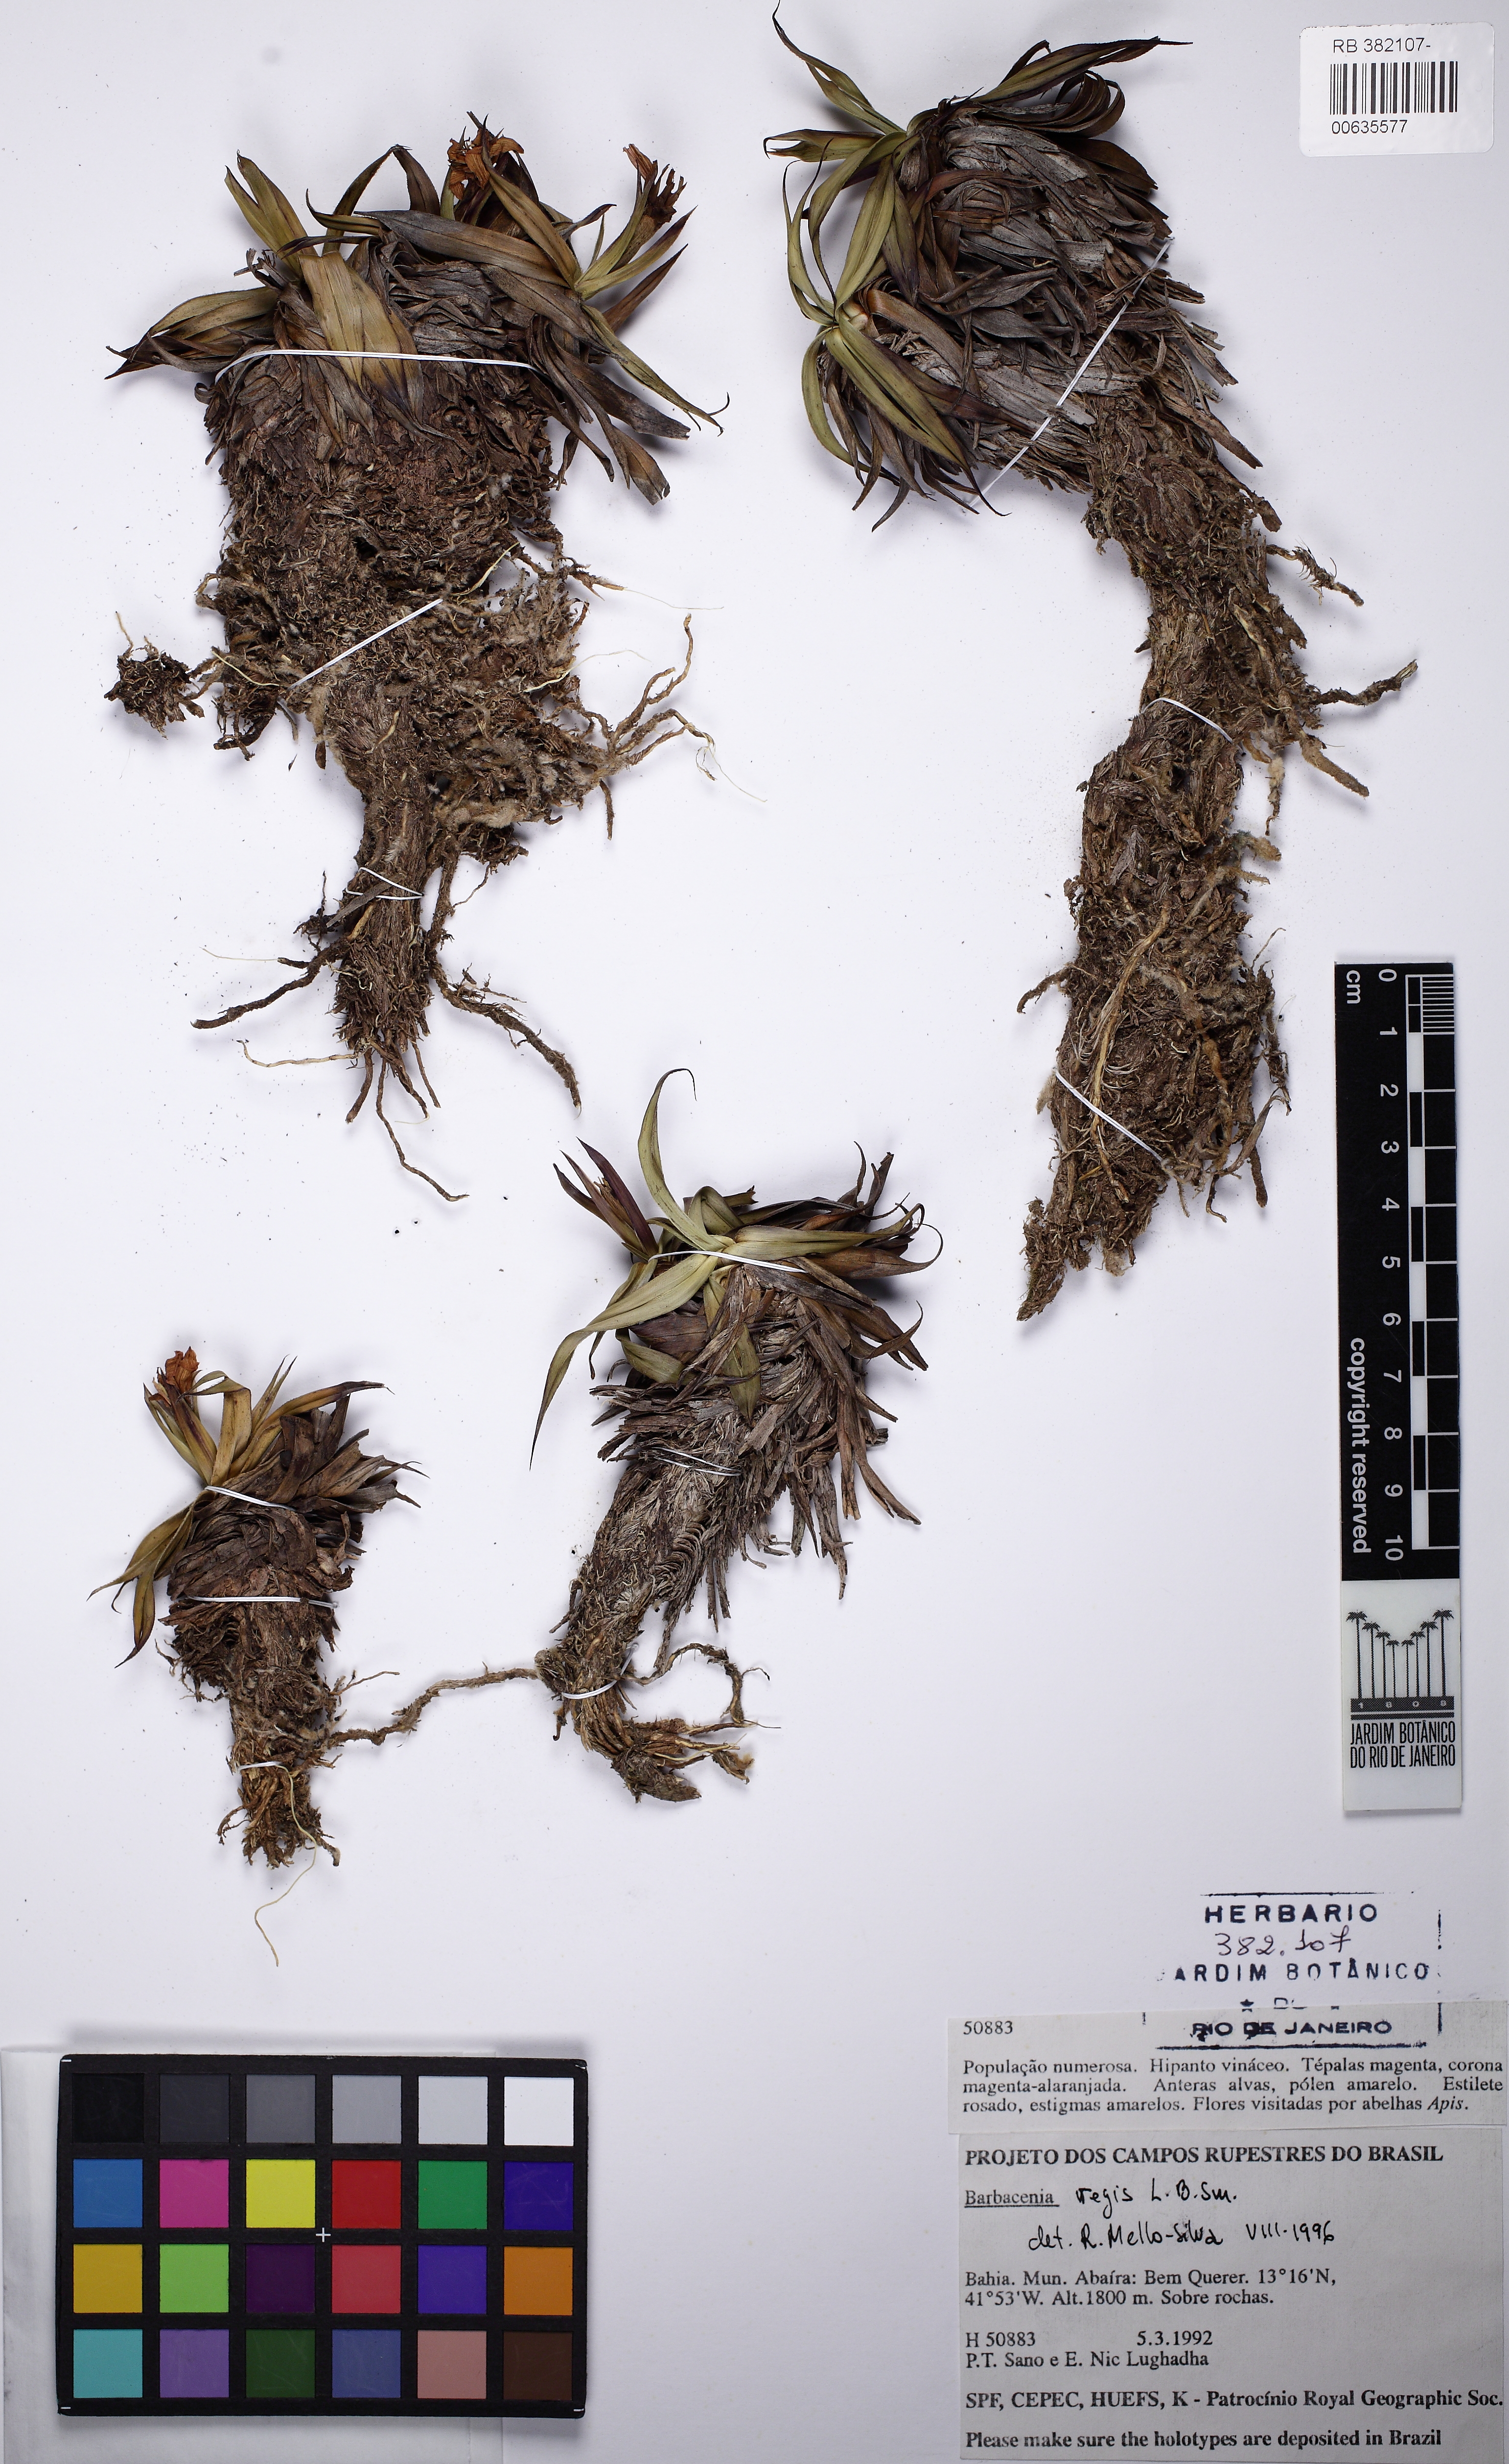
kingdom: Plantae
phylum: Tracheophyta
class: Liliopsida
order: Pandanales
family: Velloziaceae
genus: Barbacenia
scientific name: Barbacenia regis
